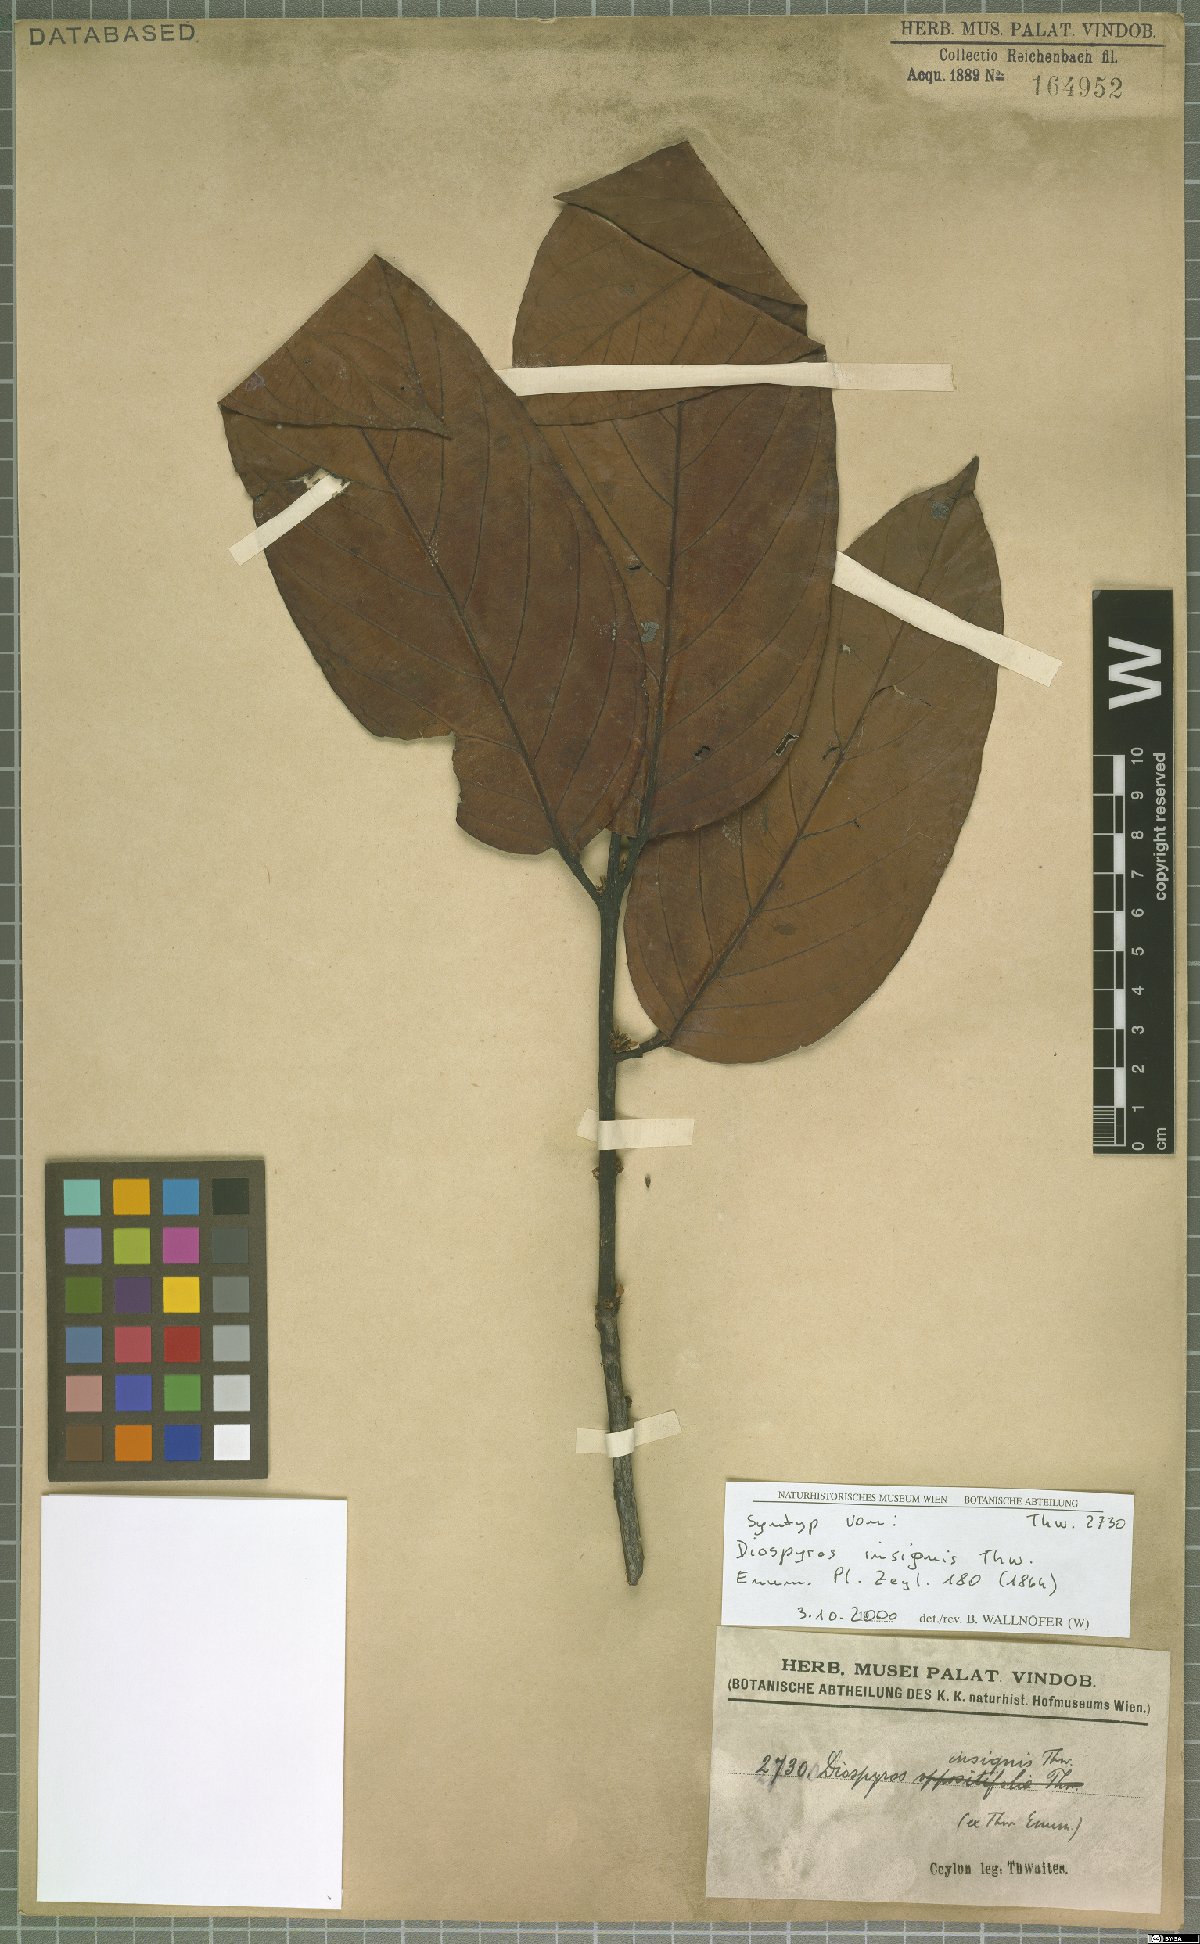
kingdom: Plantae
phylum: Tracheophyta
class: Magnoliopsida
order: Ericales
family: Ebenaceae
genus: Diospyros
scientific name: Diospyros insignis
